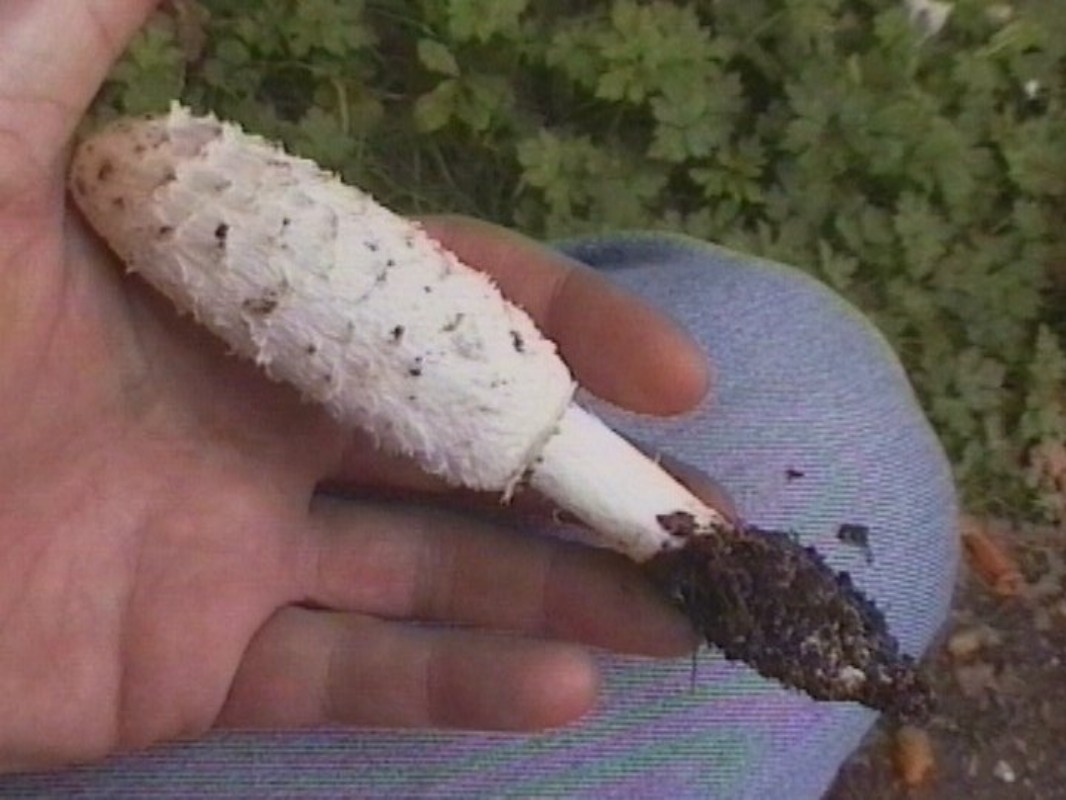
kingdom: Fungi
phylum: Basidiomycota
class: Agaricomycetes
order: Agaricales
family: Agaricaceae
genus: Coprinus
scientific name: Coprinus comatus
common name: stor parykhat
